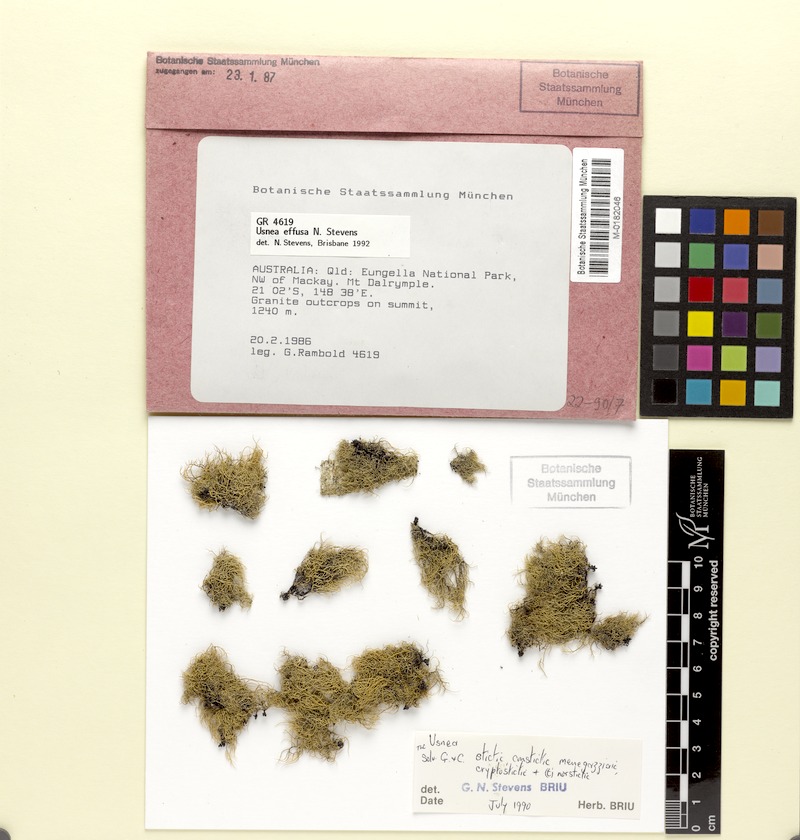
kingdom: Fungi
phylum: Ascomycota
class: Lecanoromycetes
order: Lecanorales
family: Parmeliaceae
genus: Usnea
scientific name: Usnea effusa
